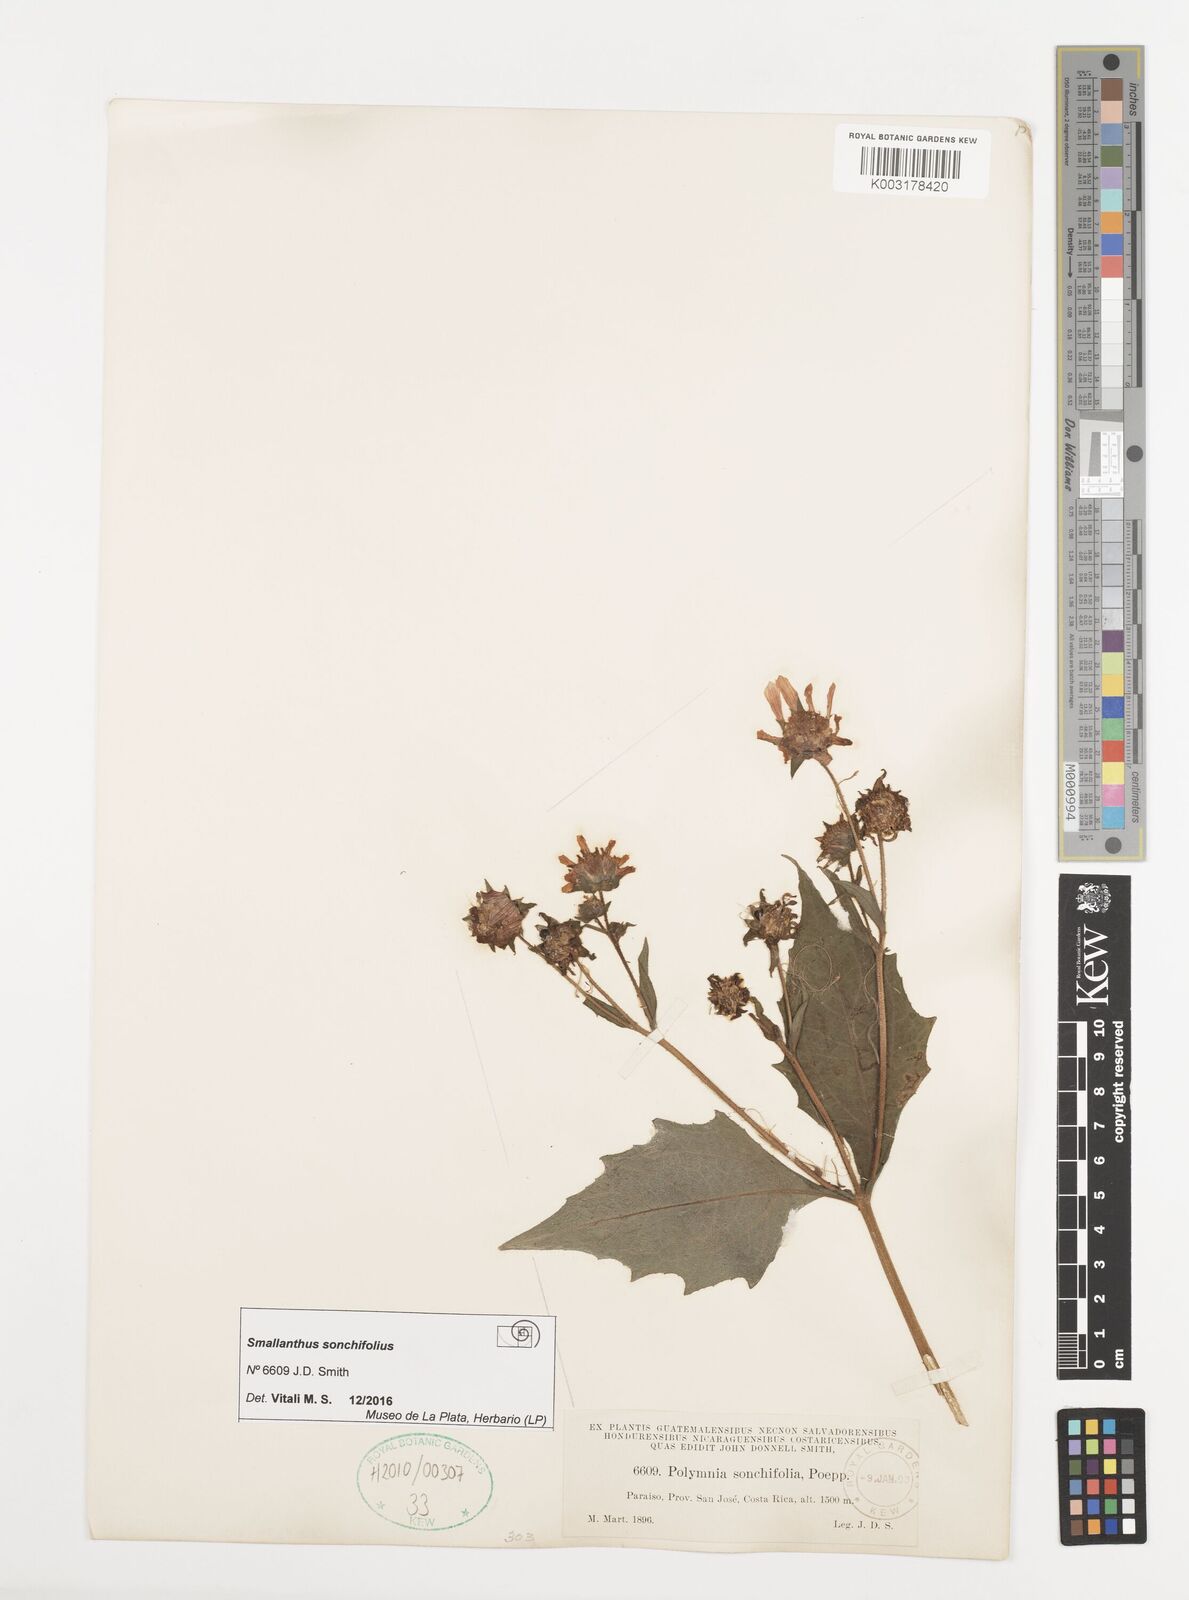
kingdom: Plantae
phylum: Tracheophyta
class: Magnoliopsida
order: Asterales
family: Asteraceae
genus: Smallanthus
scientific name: Smallanthus sonchifolius
